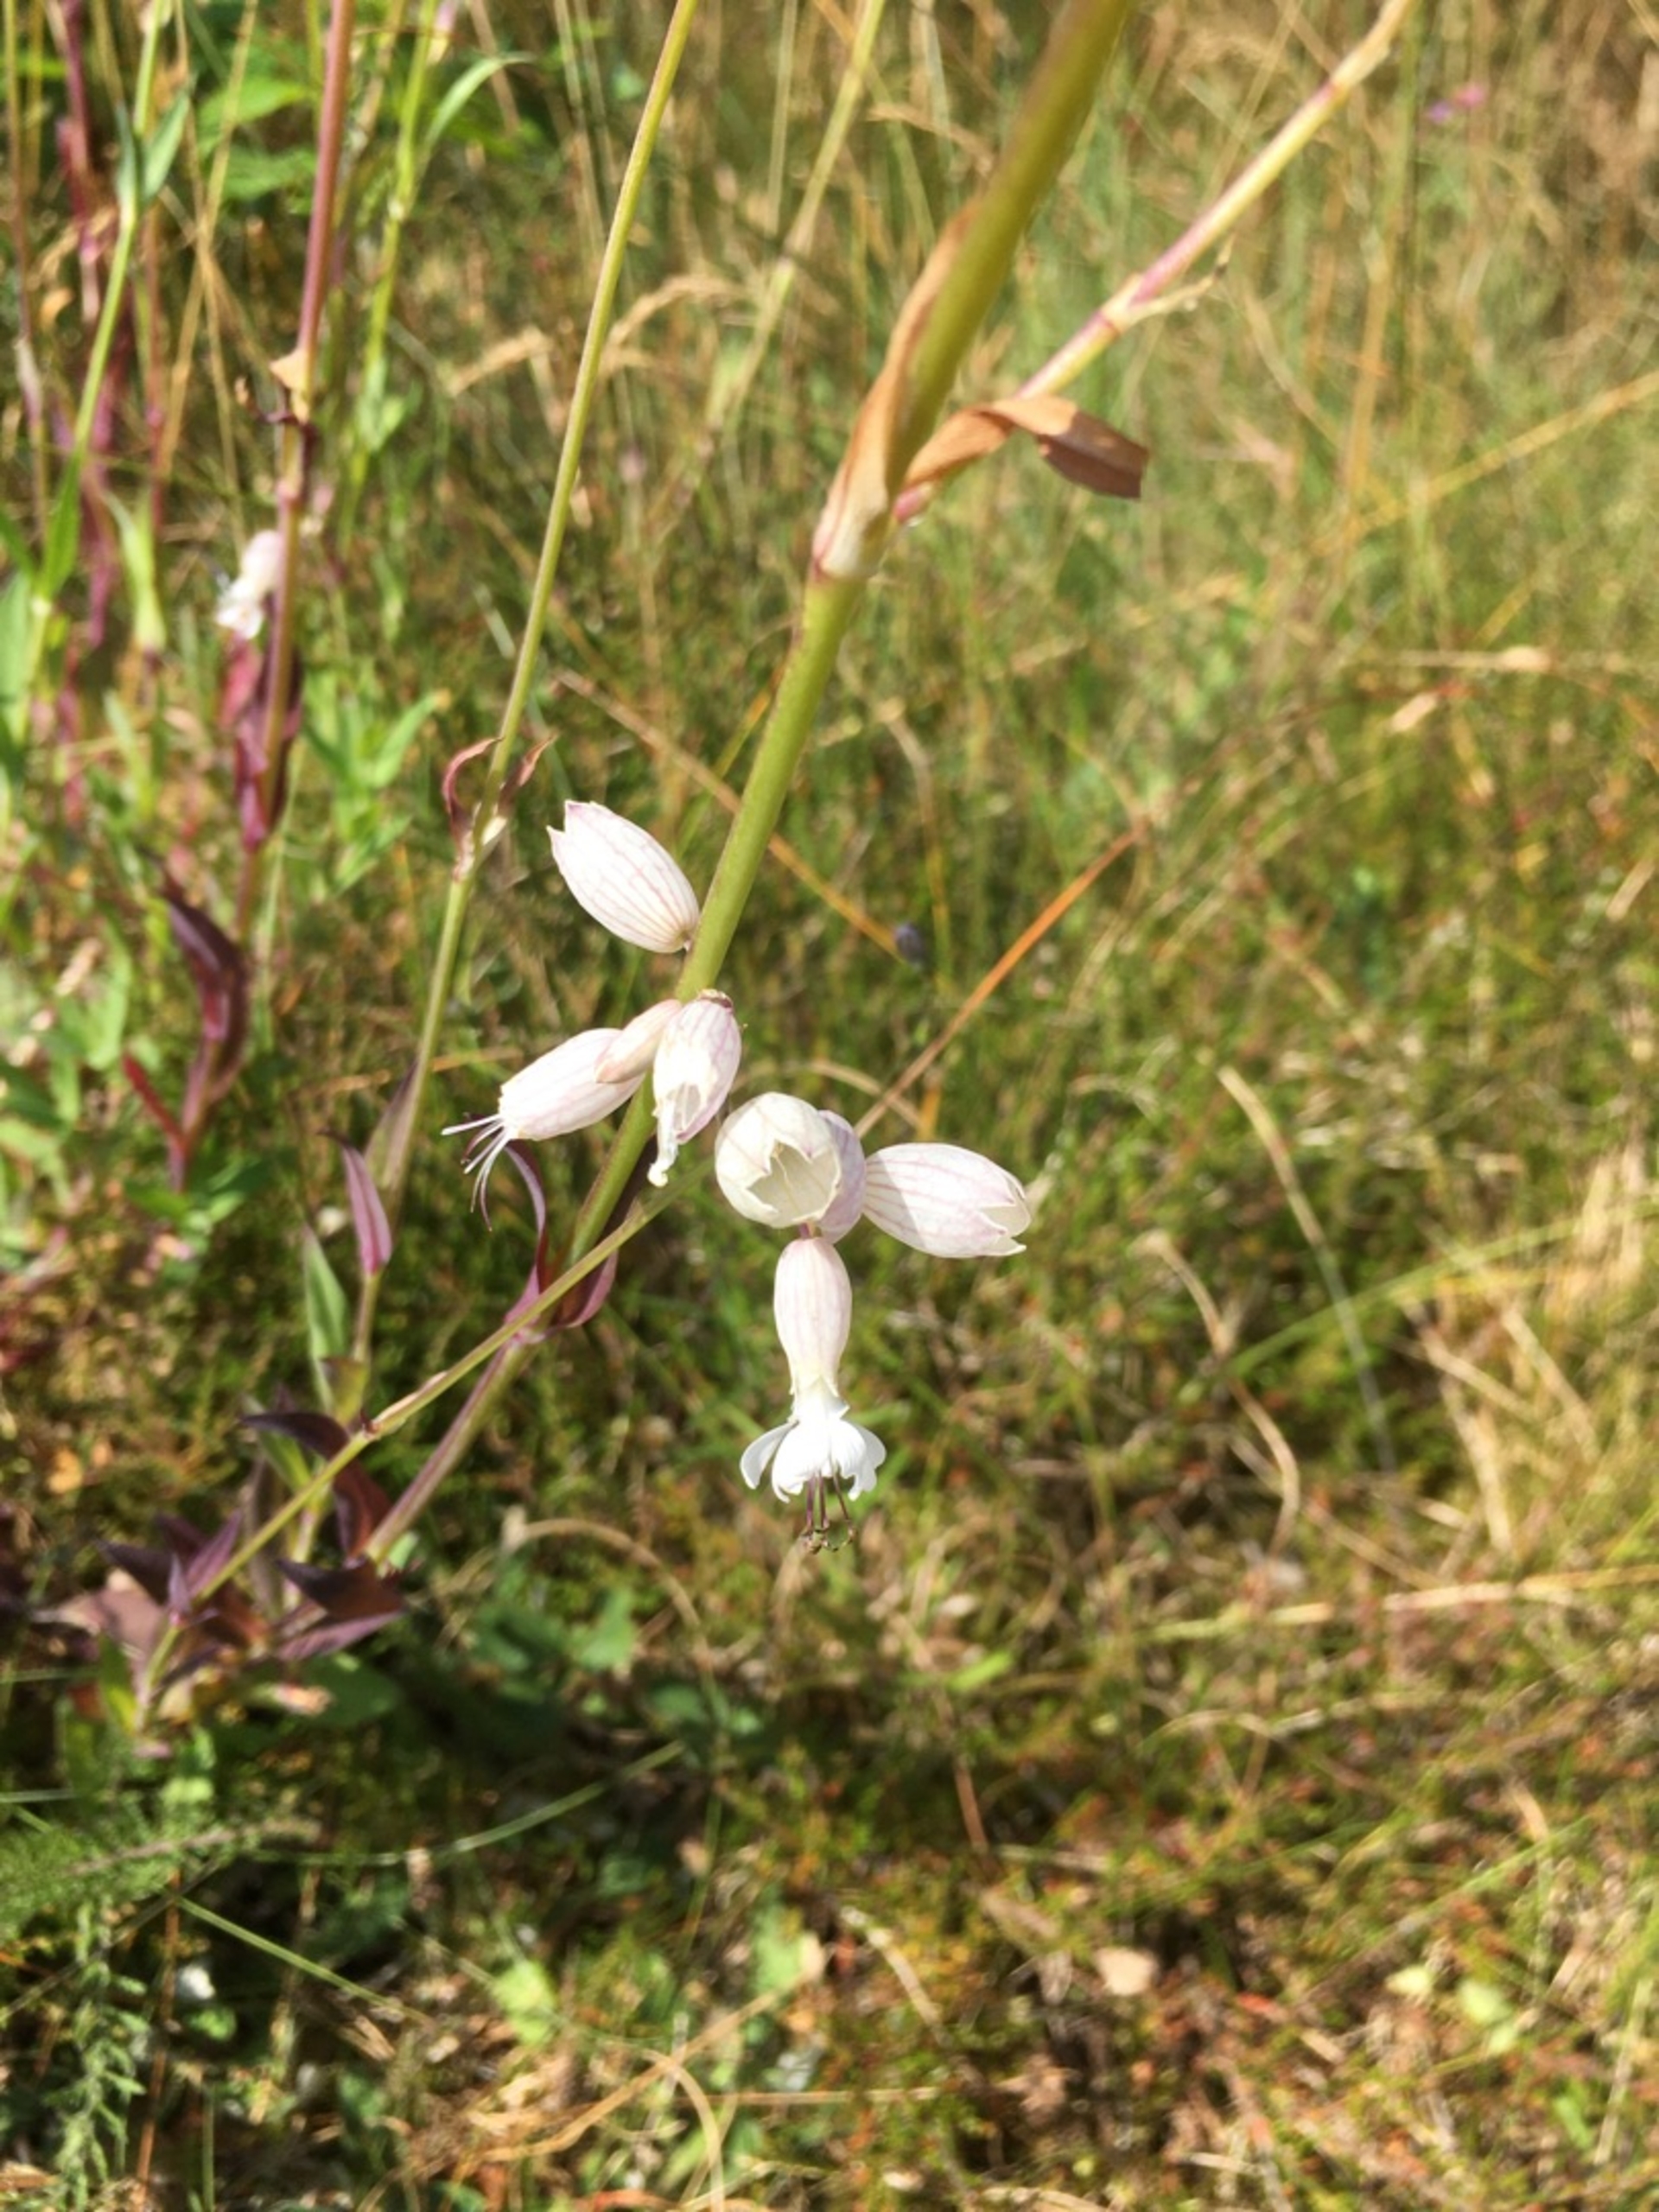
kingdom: Plantae
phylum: Tracheophyta
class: Magnoliopsida
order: Caryophyllales
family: Caryophyllaceae
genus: Silene
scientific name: Silene vulgaris
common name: Blæresmælde
